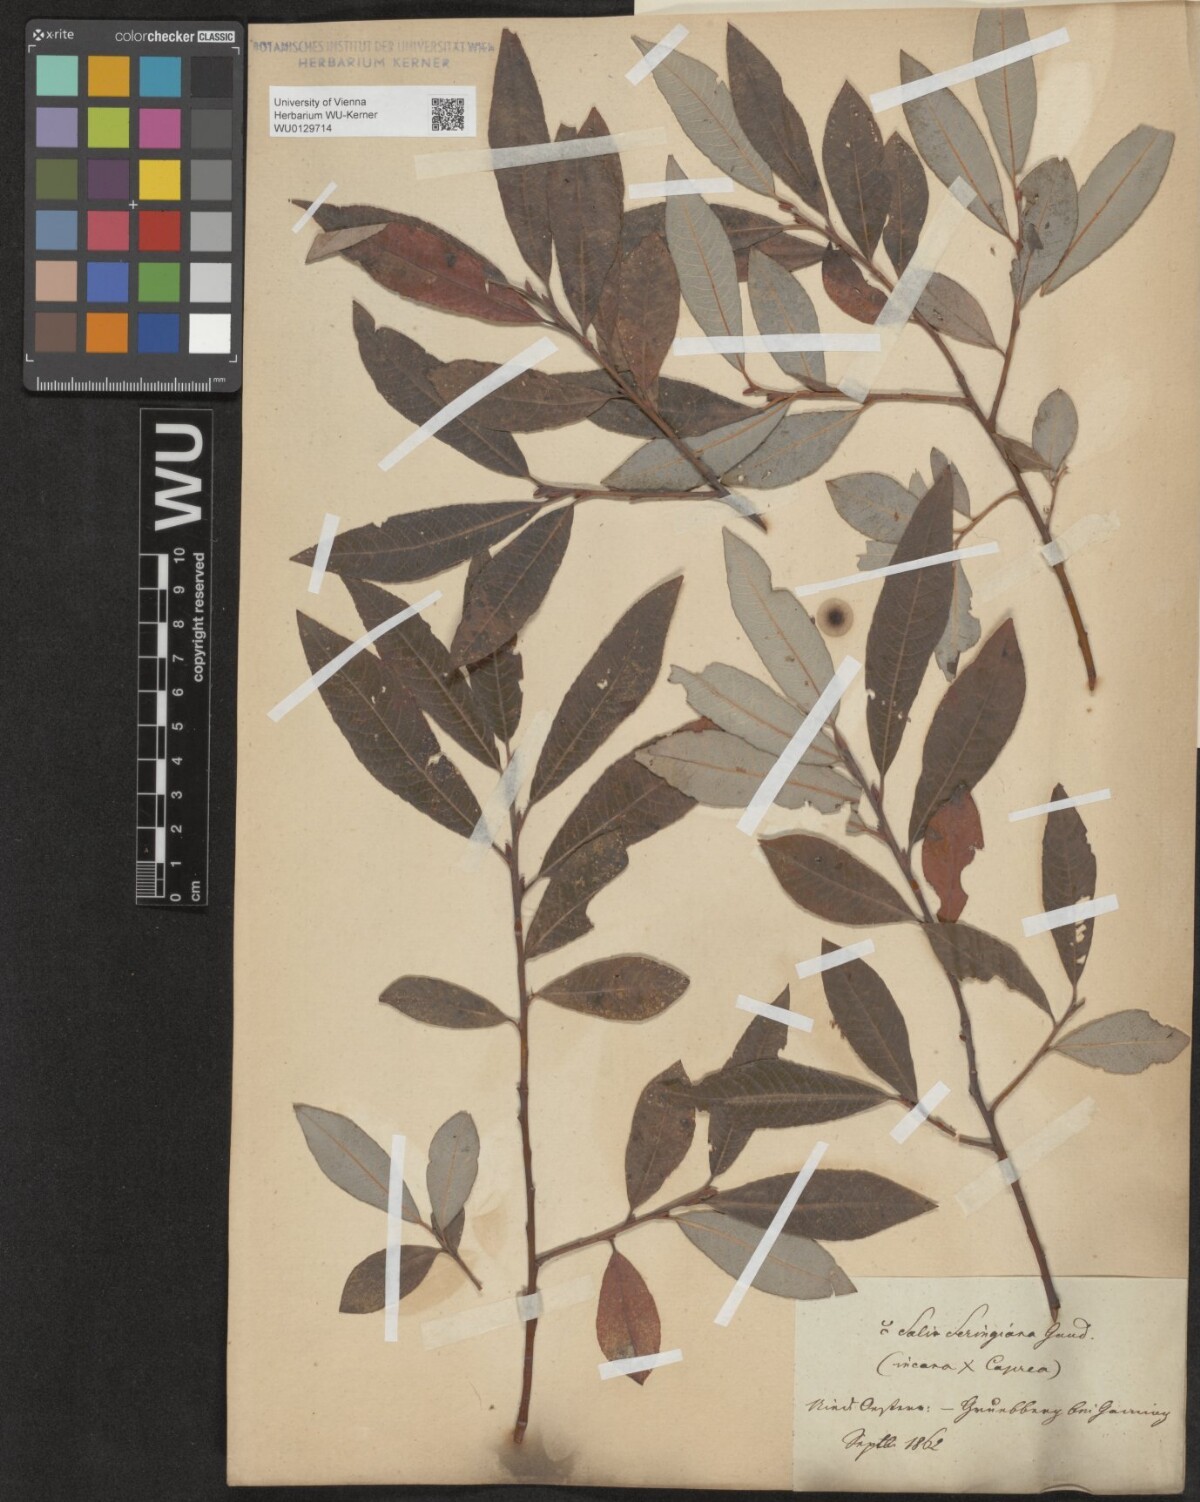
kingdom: Plantae
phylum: Tracheophyta
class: Magnoliopsida
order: Malpighiales
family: Salicaceae
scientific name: Salicaceae
